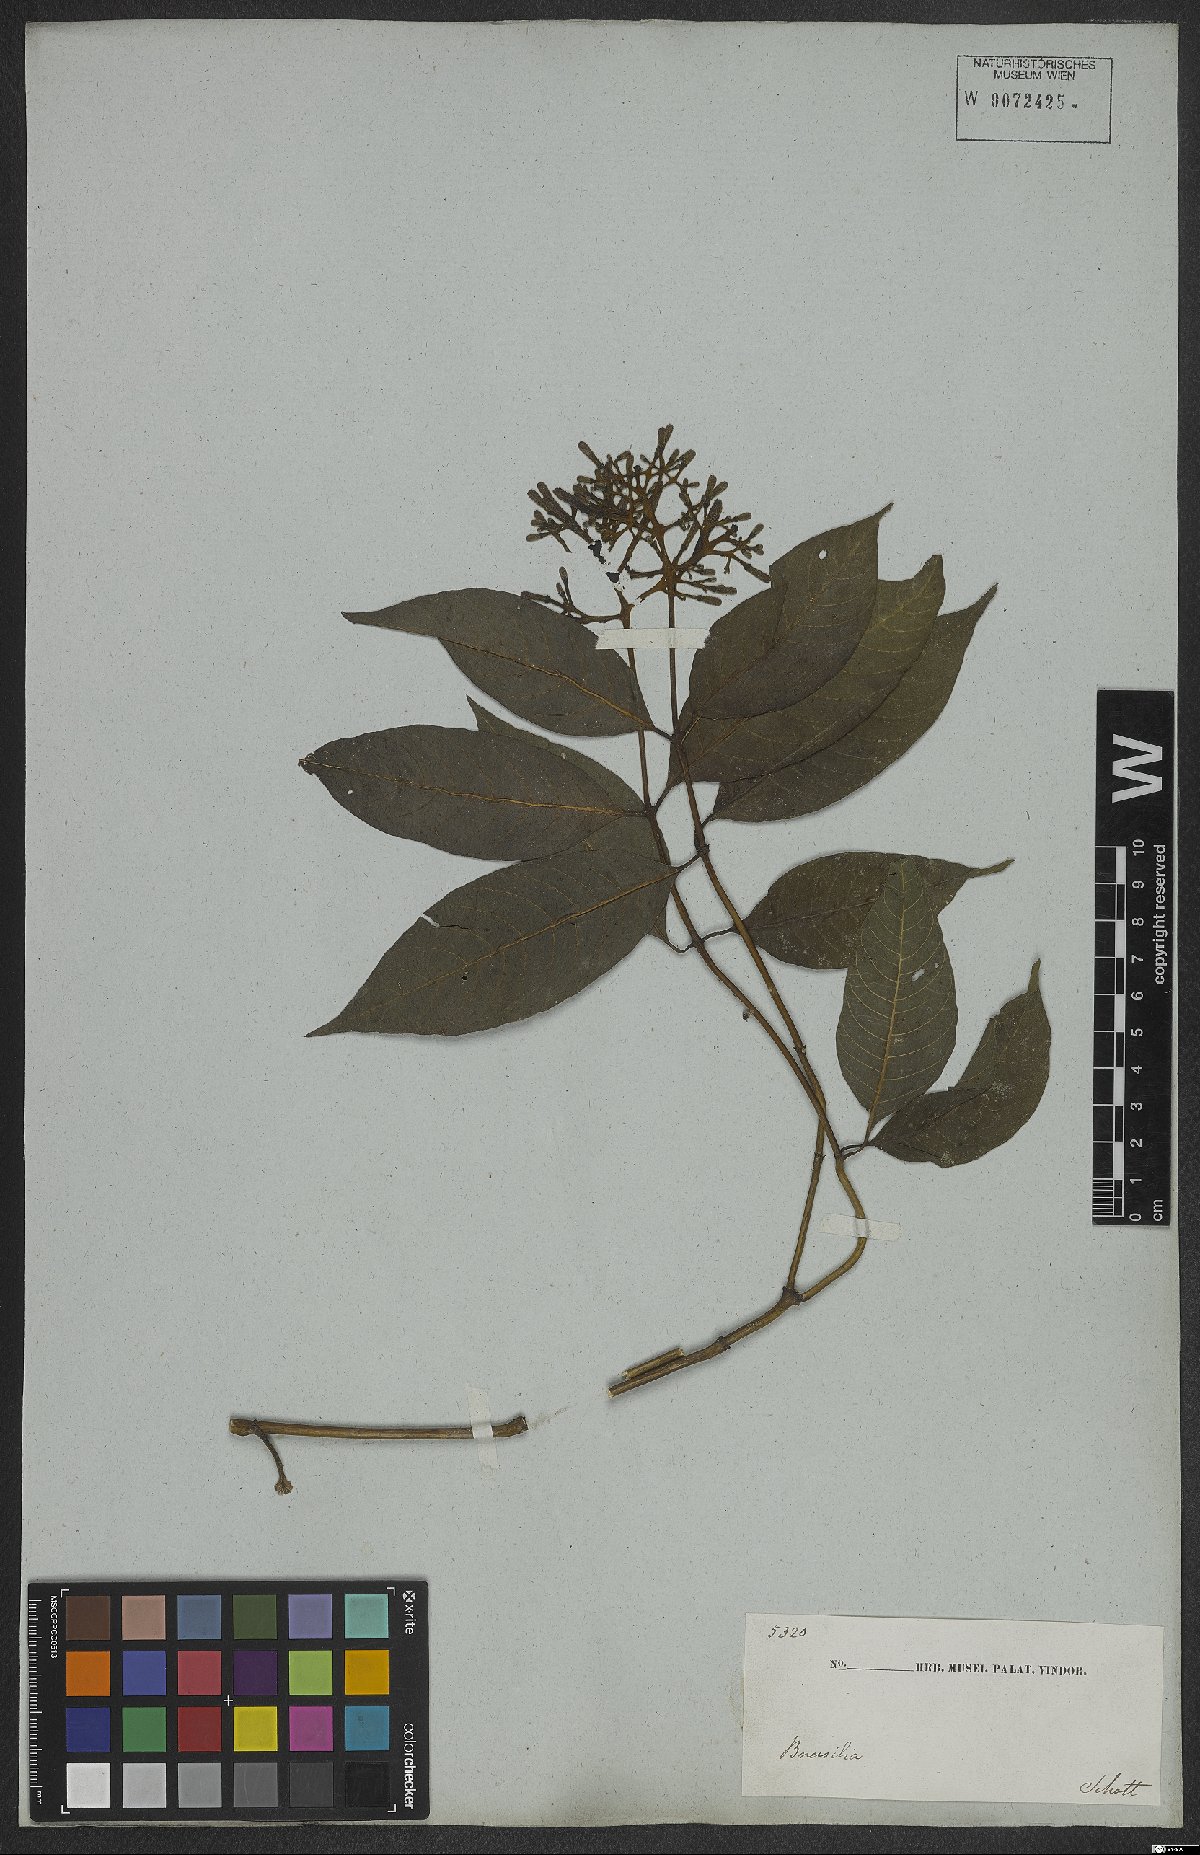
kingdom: Plantae
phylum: Tracheophyta
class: Magnoliopsida
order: Gentianales
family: Rubiaceae
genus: Palicourea
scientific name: Palicourea marcgravii
